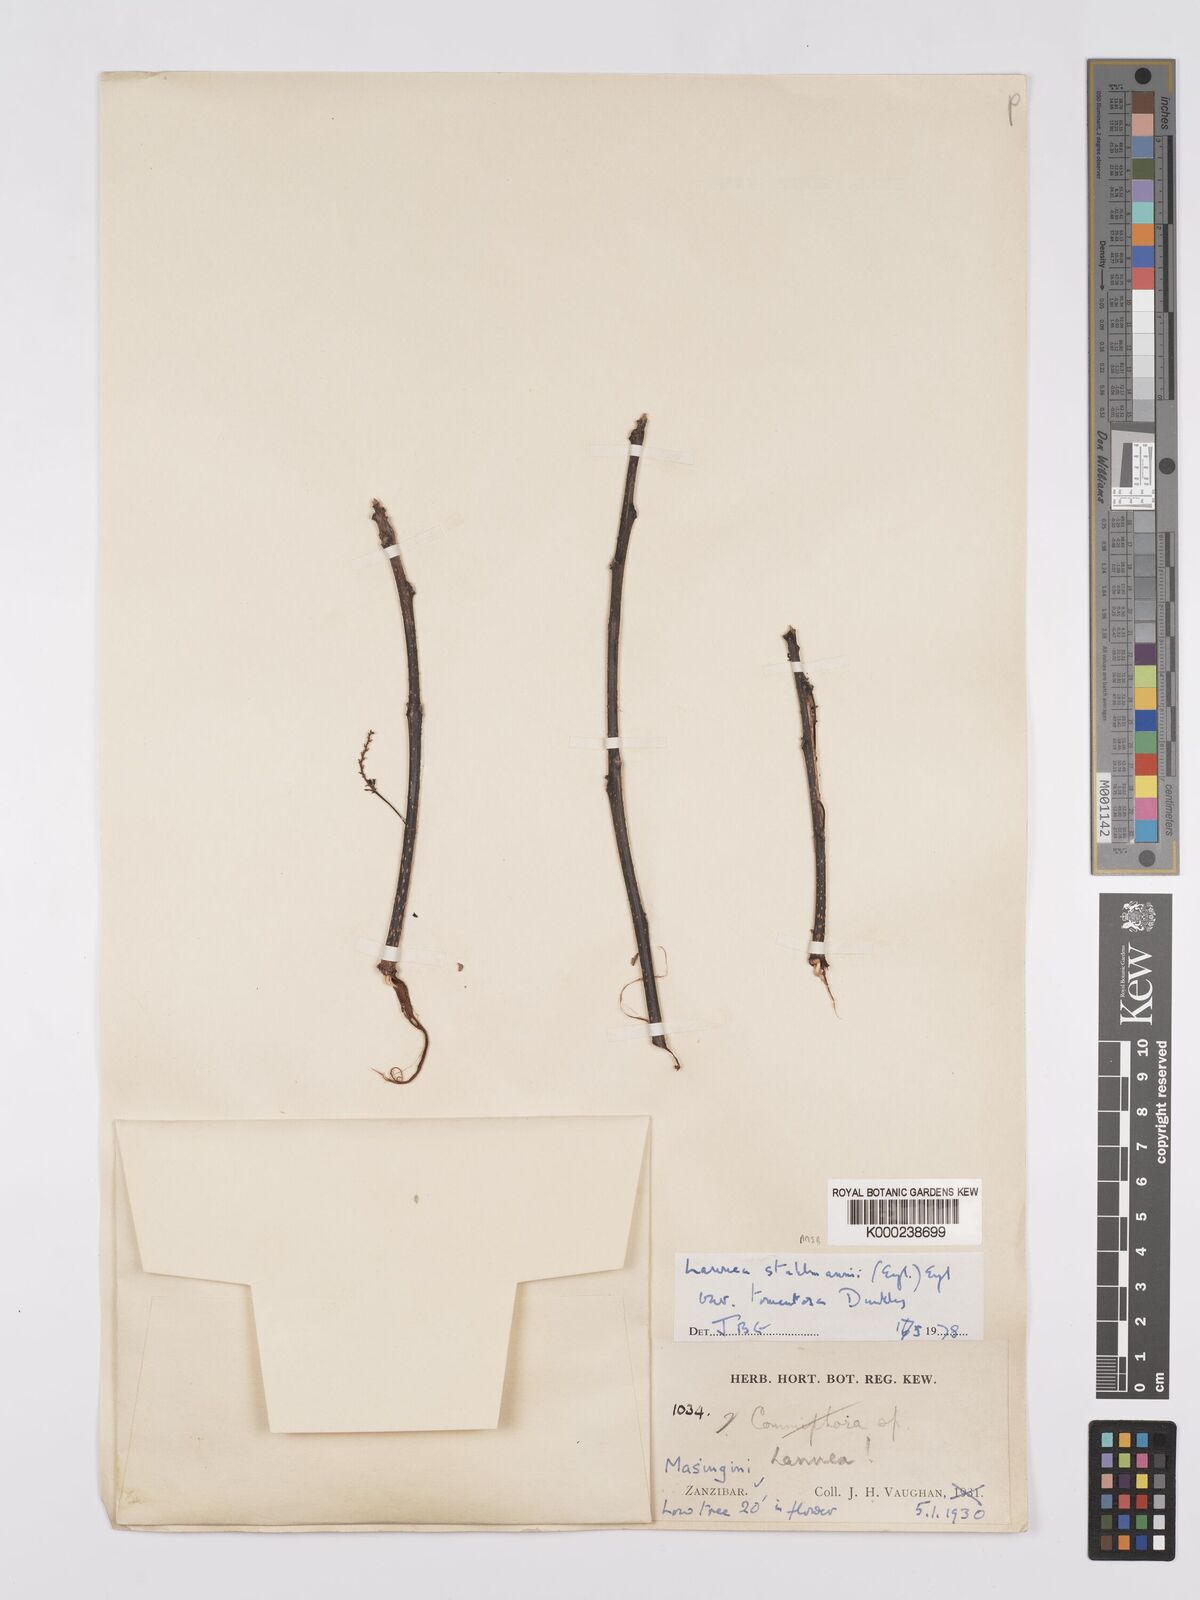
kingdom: Plantae
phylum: Tracheophyta
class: Magnoliopsida
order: Sapindales
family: Anacardiaceae
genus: Lannea
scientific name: Lannea schweinfurthii
